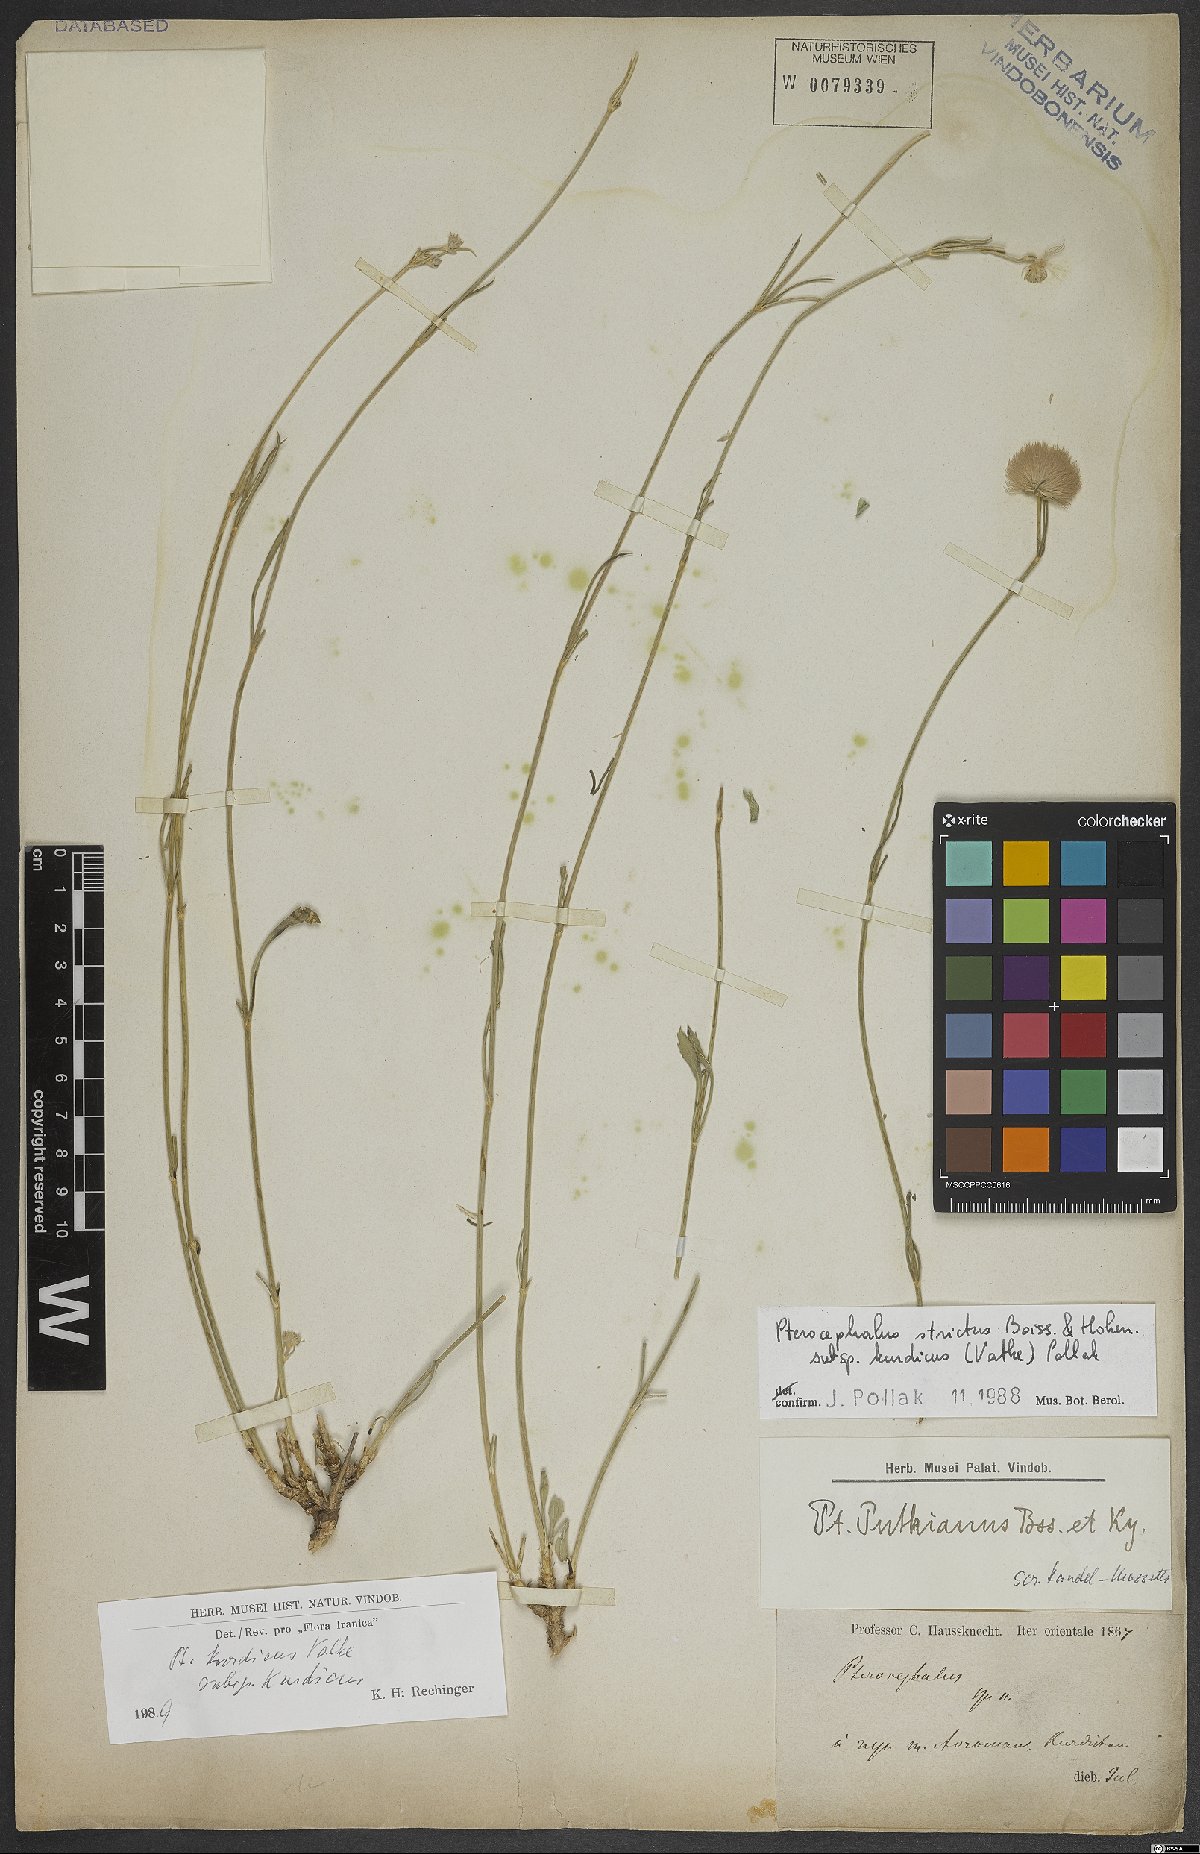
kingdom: Plantae
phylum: Tracheophyta
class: Magnoliopsida
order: Dipsacales
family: Caprifoliaceae
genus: Pterocephalus
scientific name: Pterocephalus kurdicus
